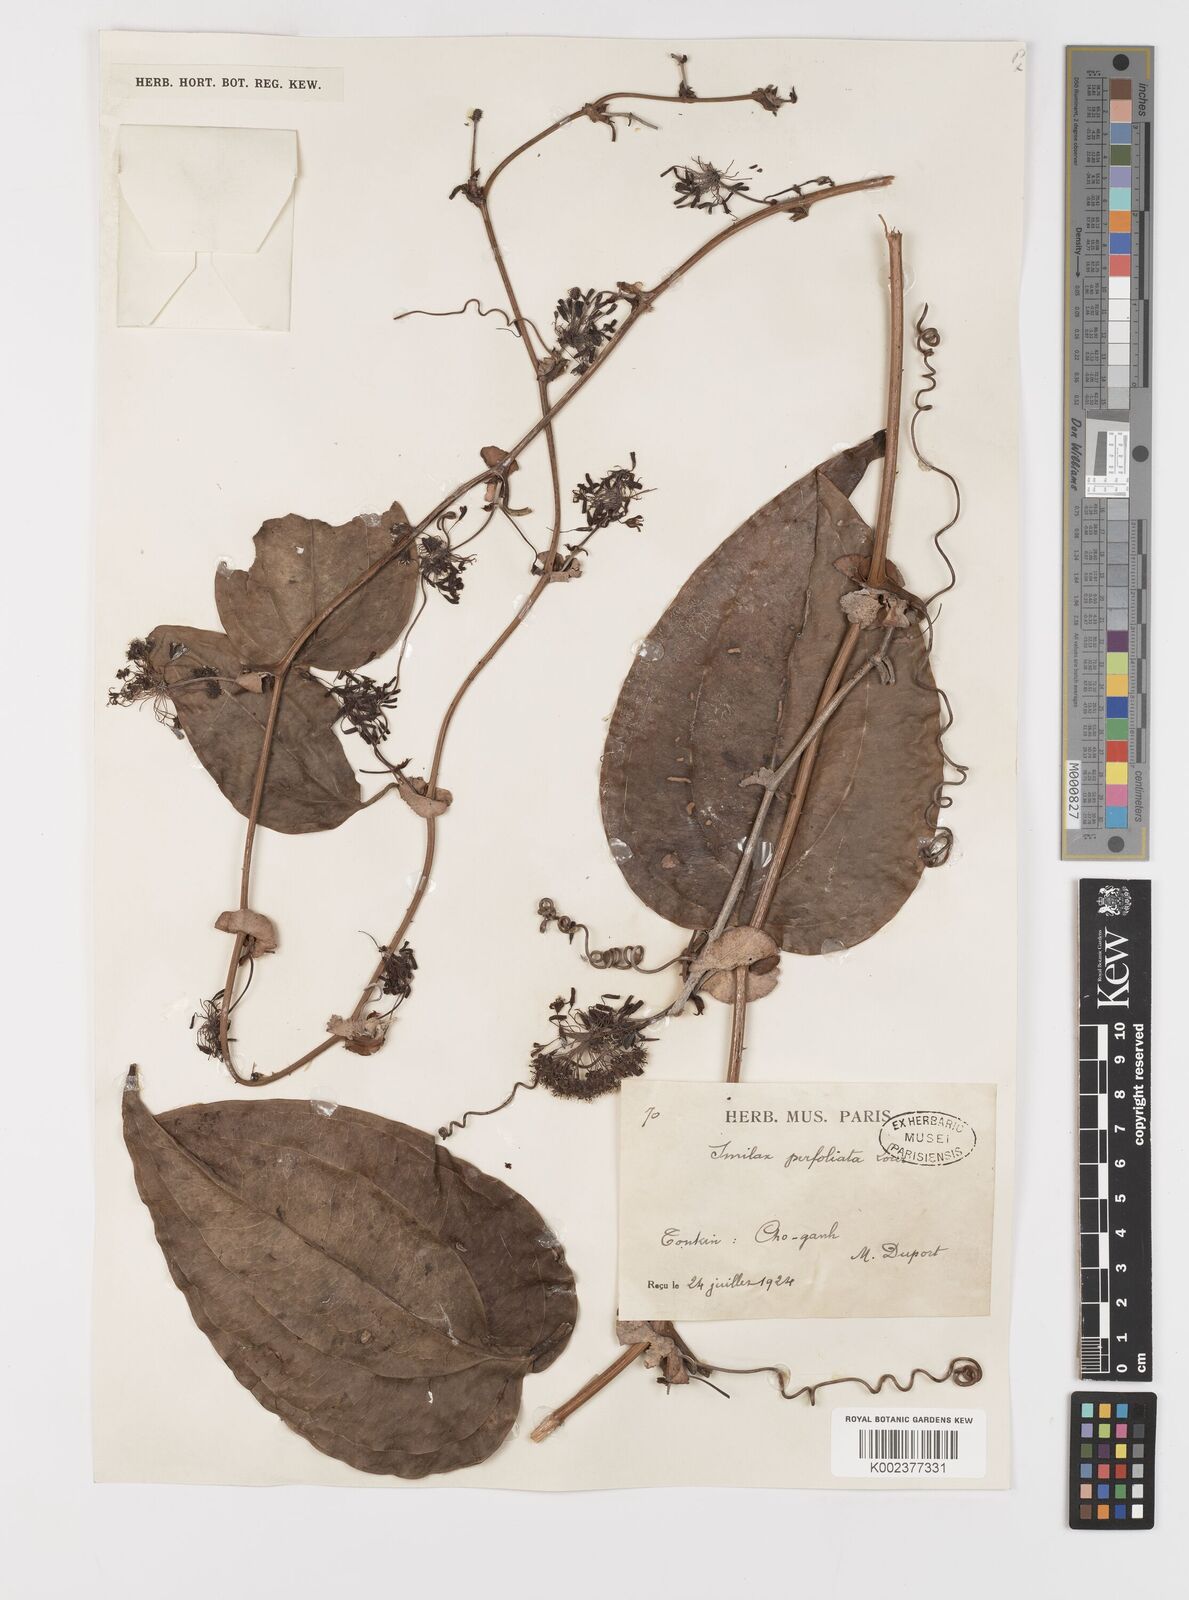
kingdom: Plantae
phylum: Tracheophyta
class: Liliopsida
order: Liliales
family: Smilacaceae
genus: Smilax
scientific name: Smilax perfoliata
